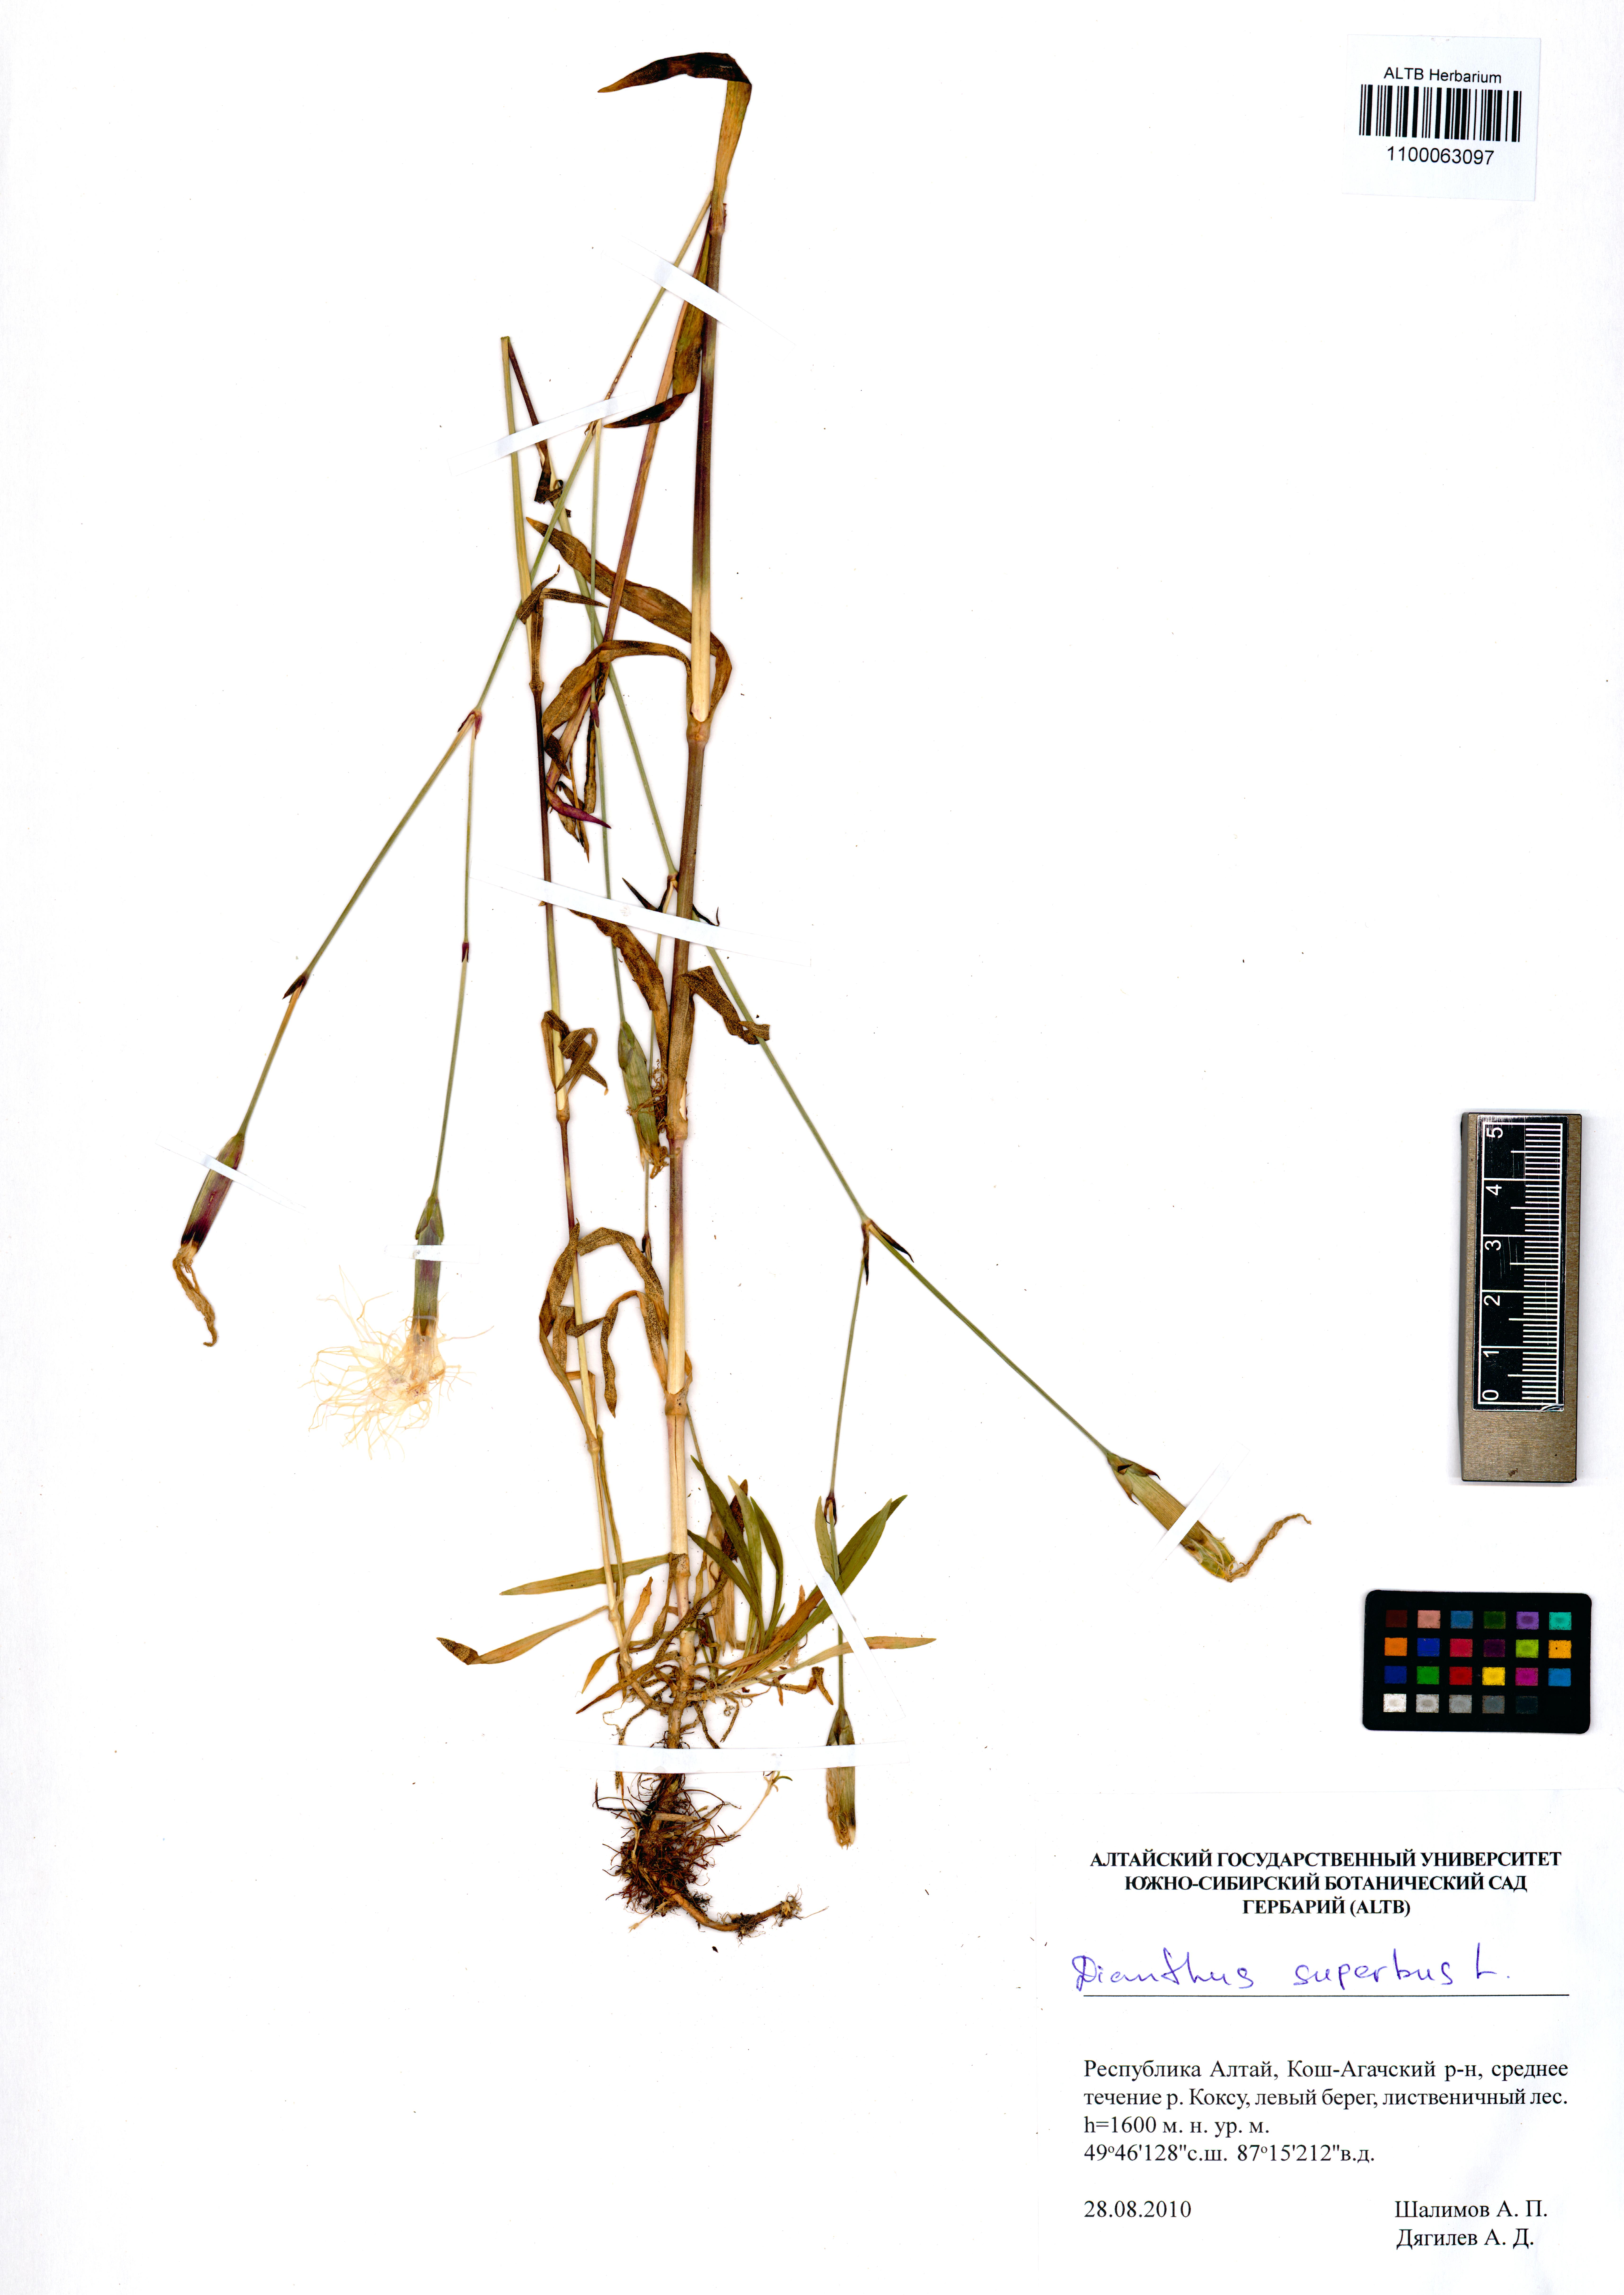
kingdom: Plantae
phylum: Tracheophyta
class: Magnoliopsida
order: Caryophyllales
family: Caryophyllaceae
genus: Dianthus
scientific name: Dianthus superbus
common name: Fringed pink
